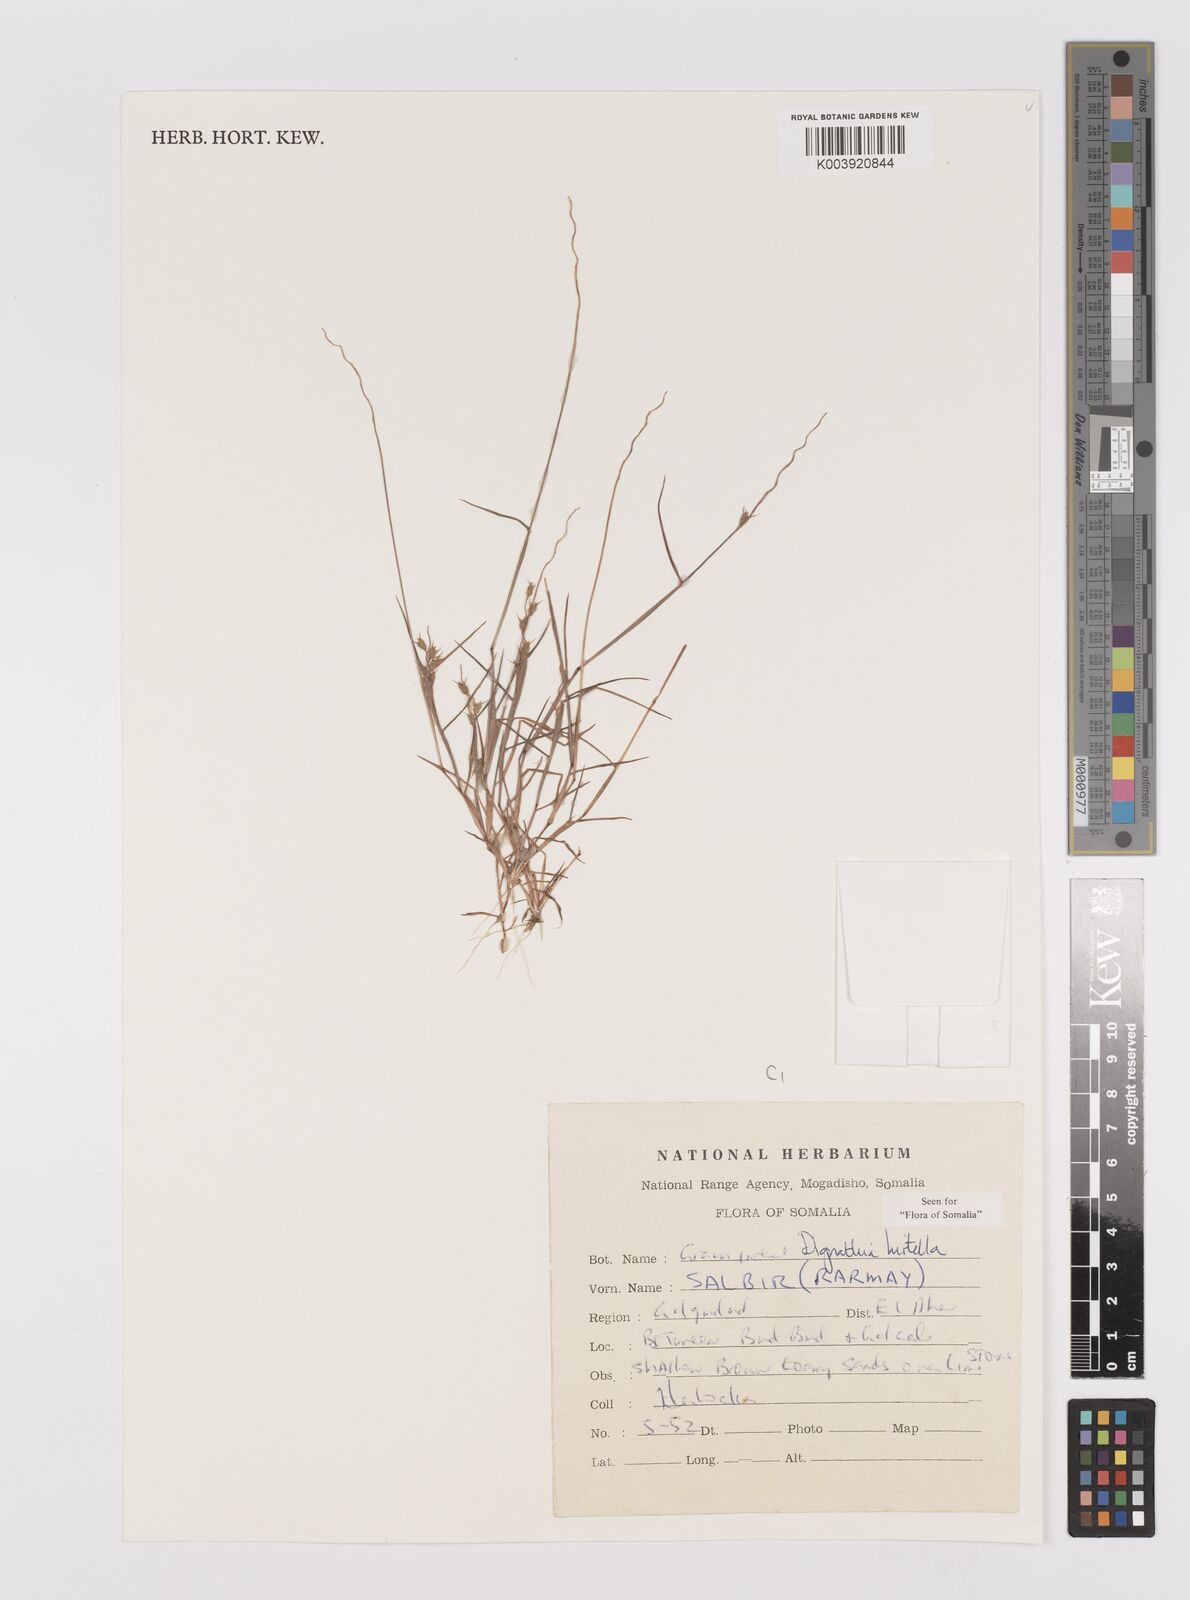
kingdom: Plantae
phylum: Tracheophyta
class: Liliopsida
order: Poales
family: Poaceae
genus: Dignathia
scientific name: Dignathia hirtella
